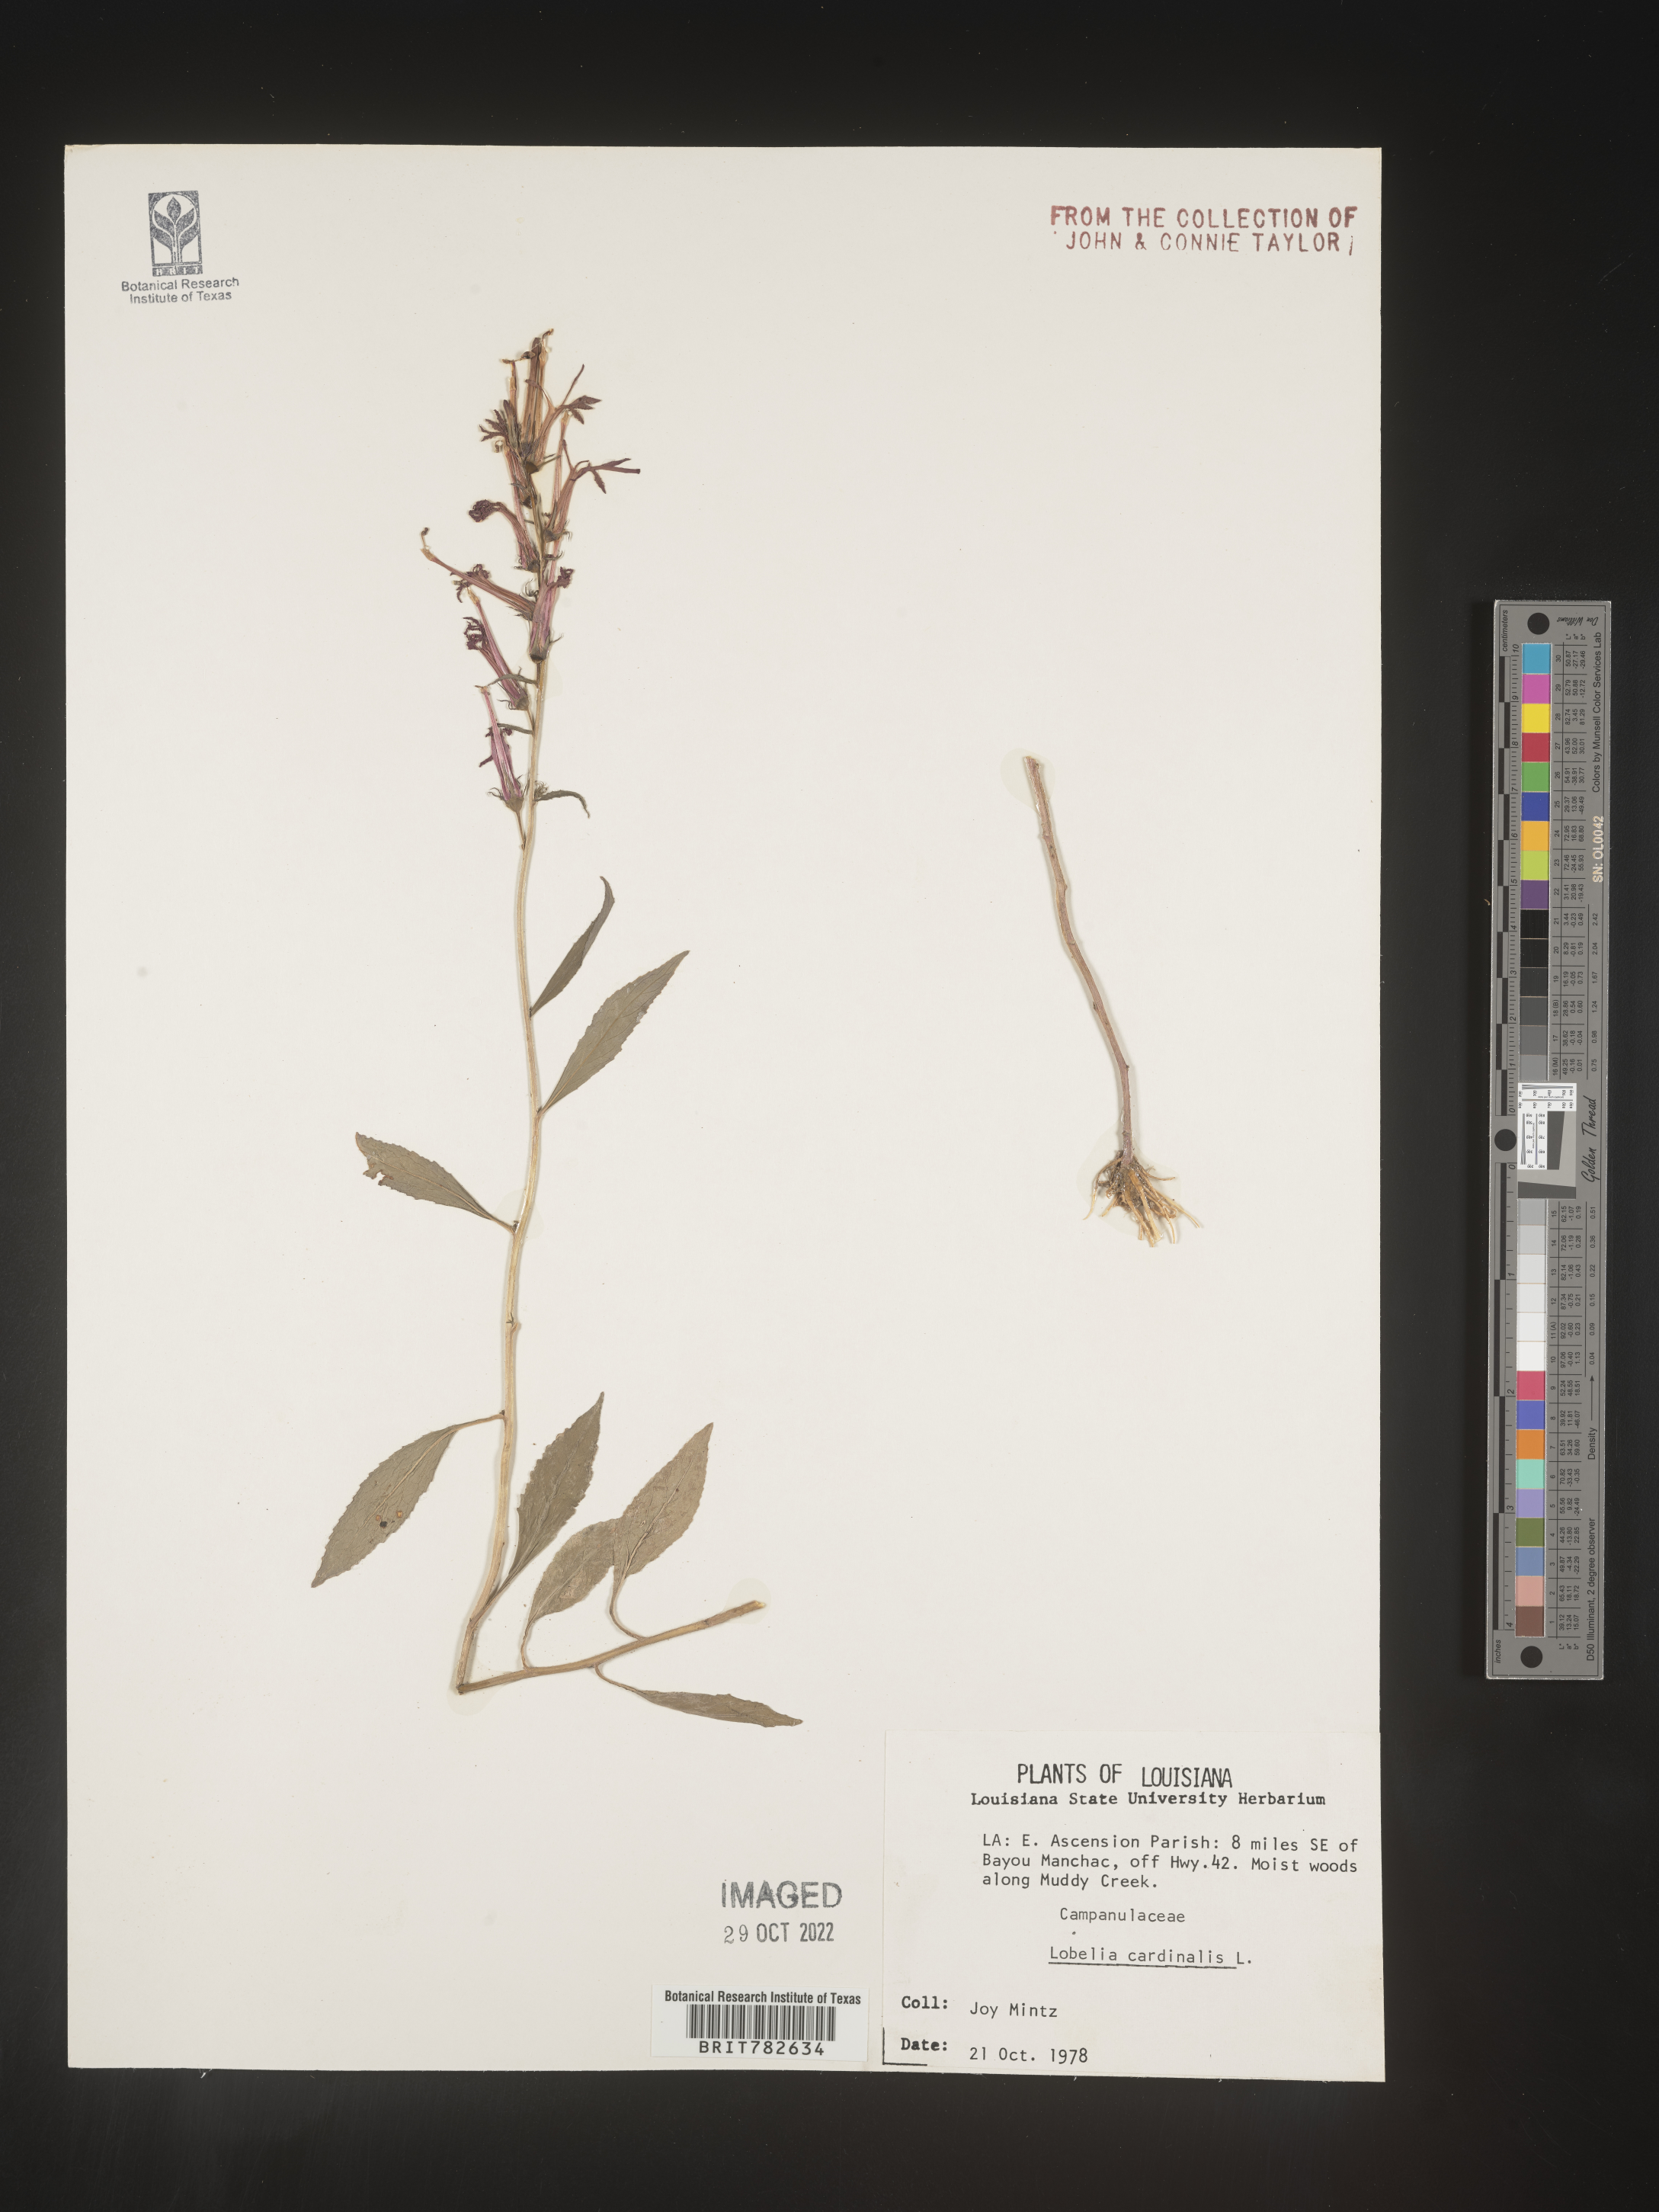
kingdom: Plantae
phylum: Tracheophyta
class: Magnoliopsida
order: Asterales
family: Campanulaceae
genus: Lobelia
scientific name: Lobelia cardinalis
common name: Cardinal flower
